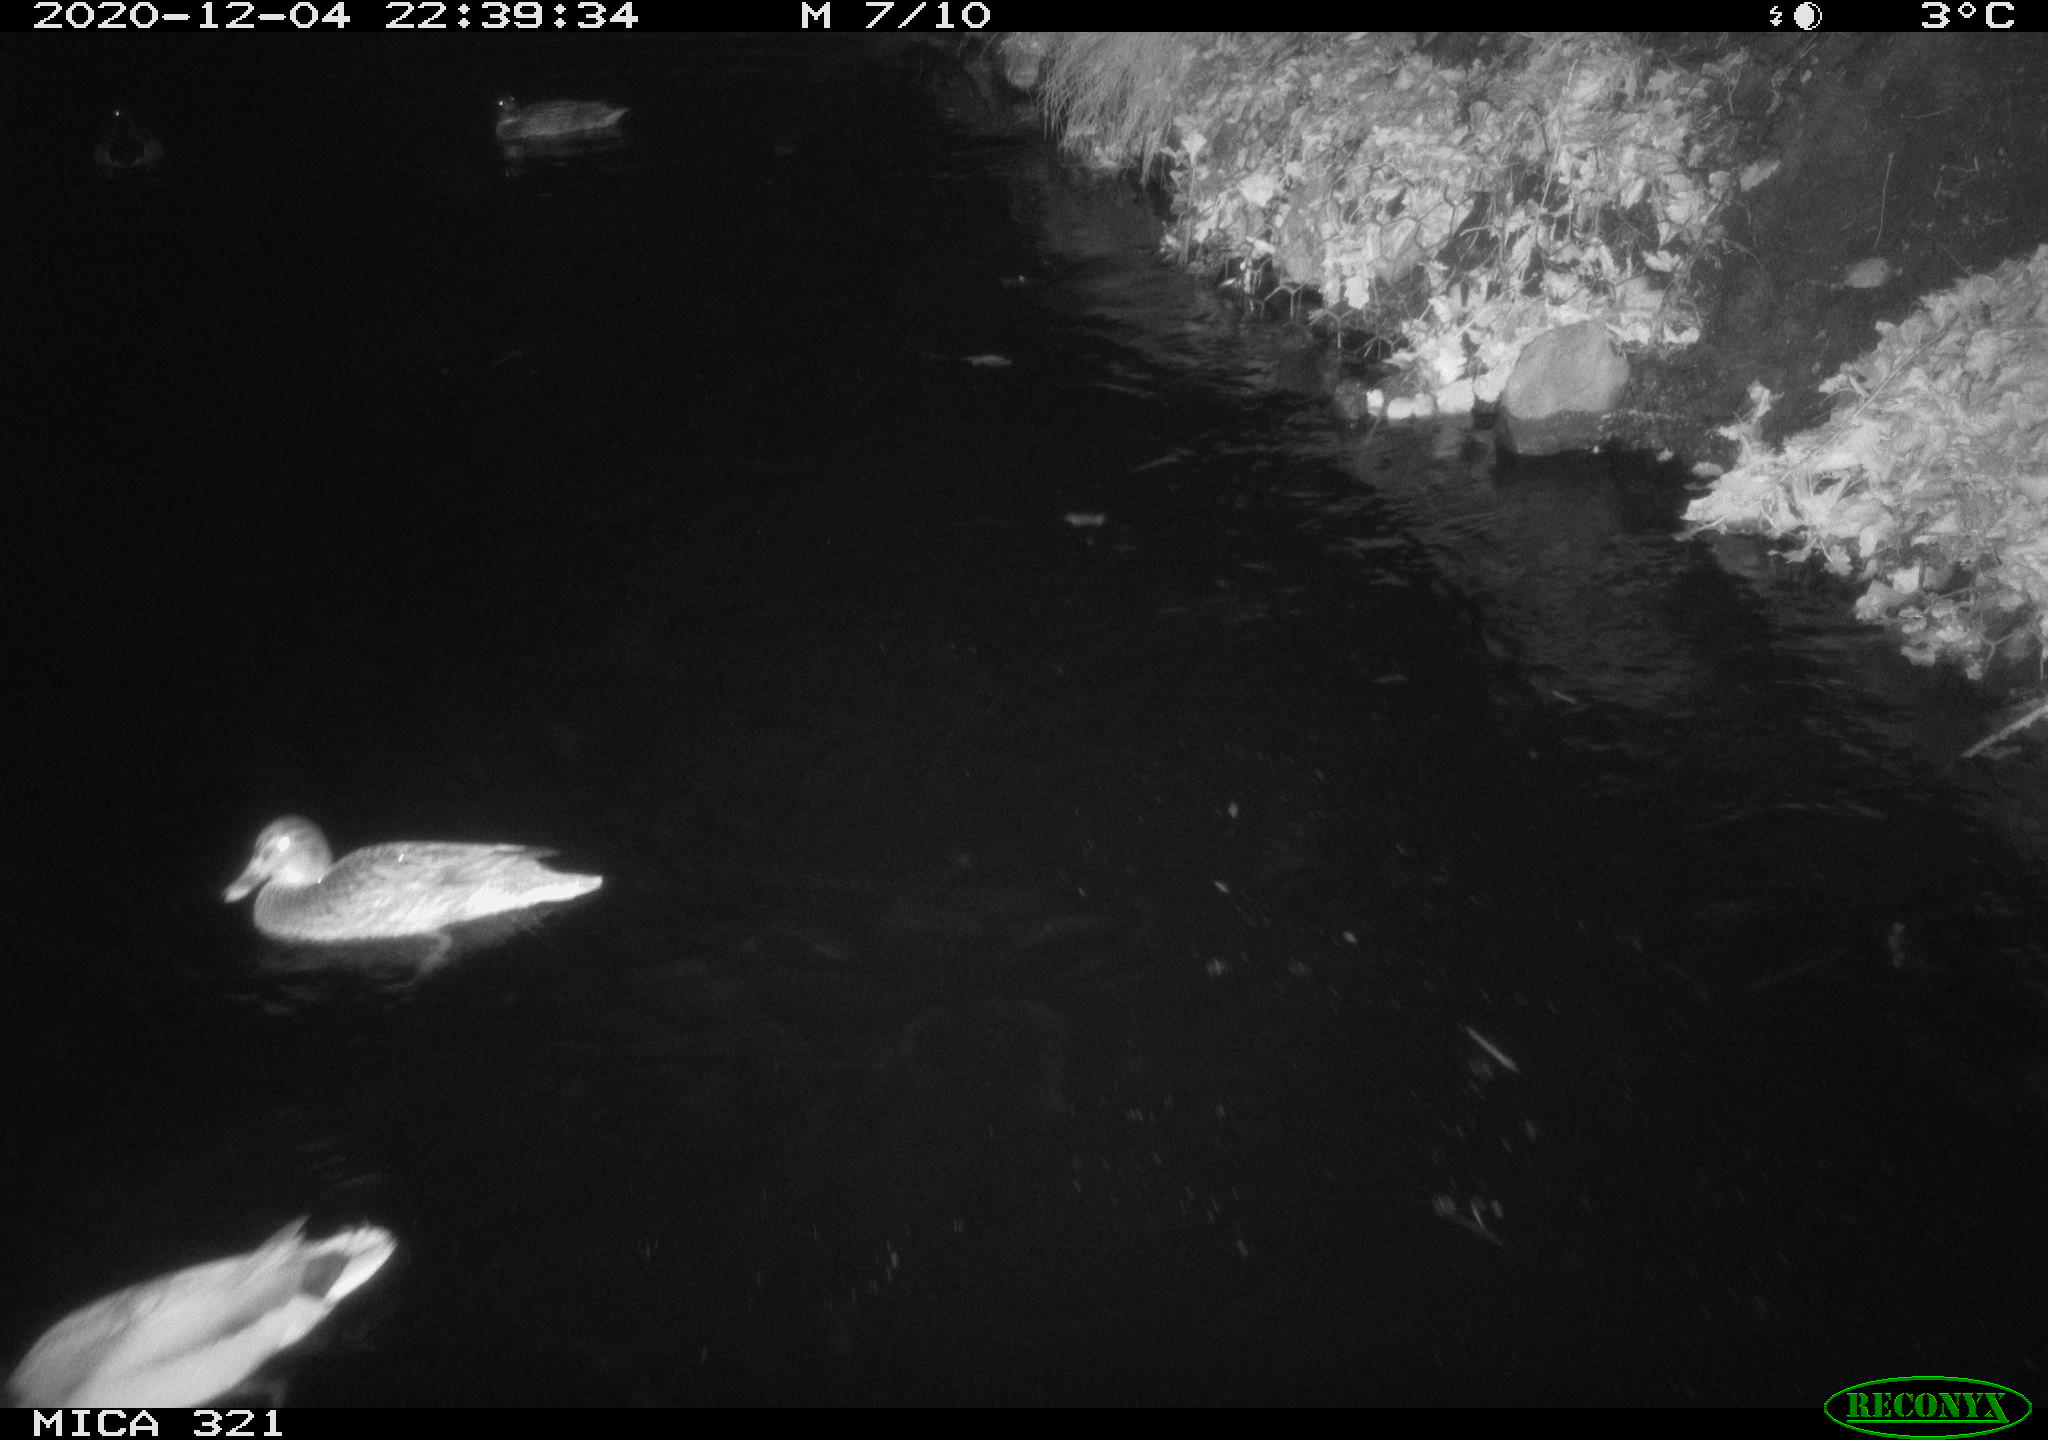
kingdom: Animalia
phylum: Chordata
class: Aves
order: Anseriformes
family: Anatidae
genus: Anas
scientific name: Anas platyrhynchos
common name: Mallard
